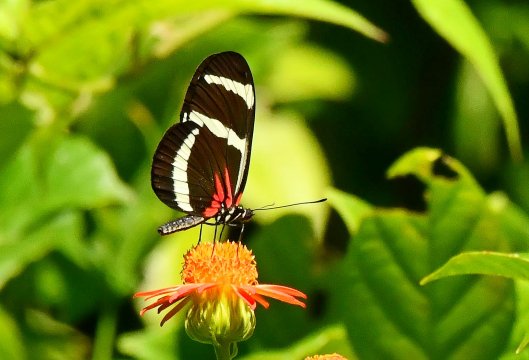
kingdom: Animalia
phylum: Arthropoda
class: Insecta
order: Lepidoptera
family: Nymphalidae
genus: Heliconius
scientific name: Heliconius hewitsoni
